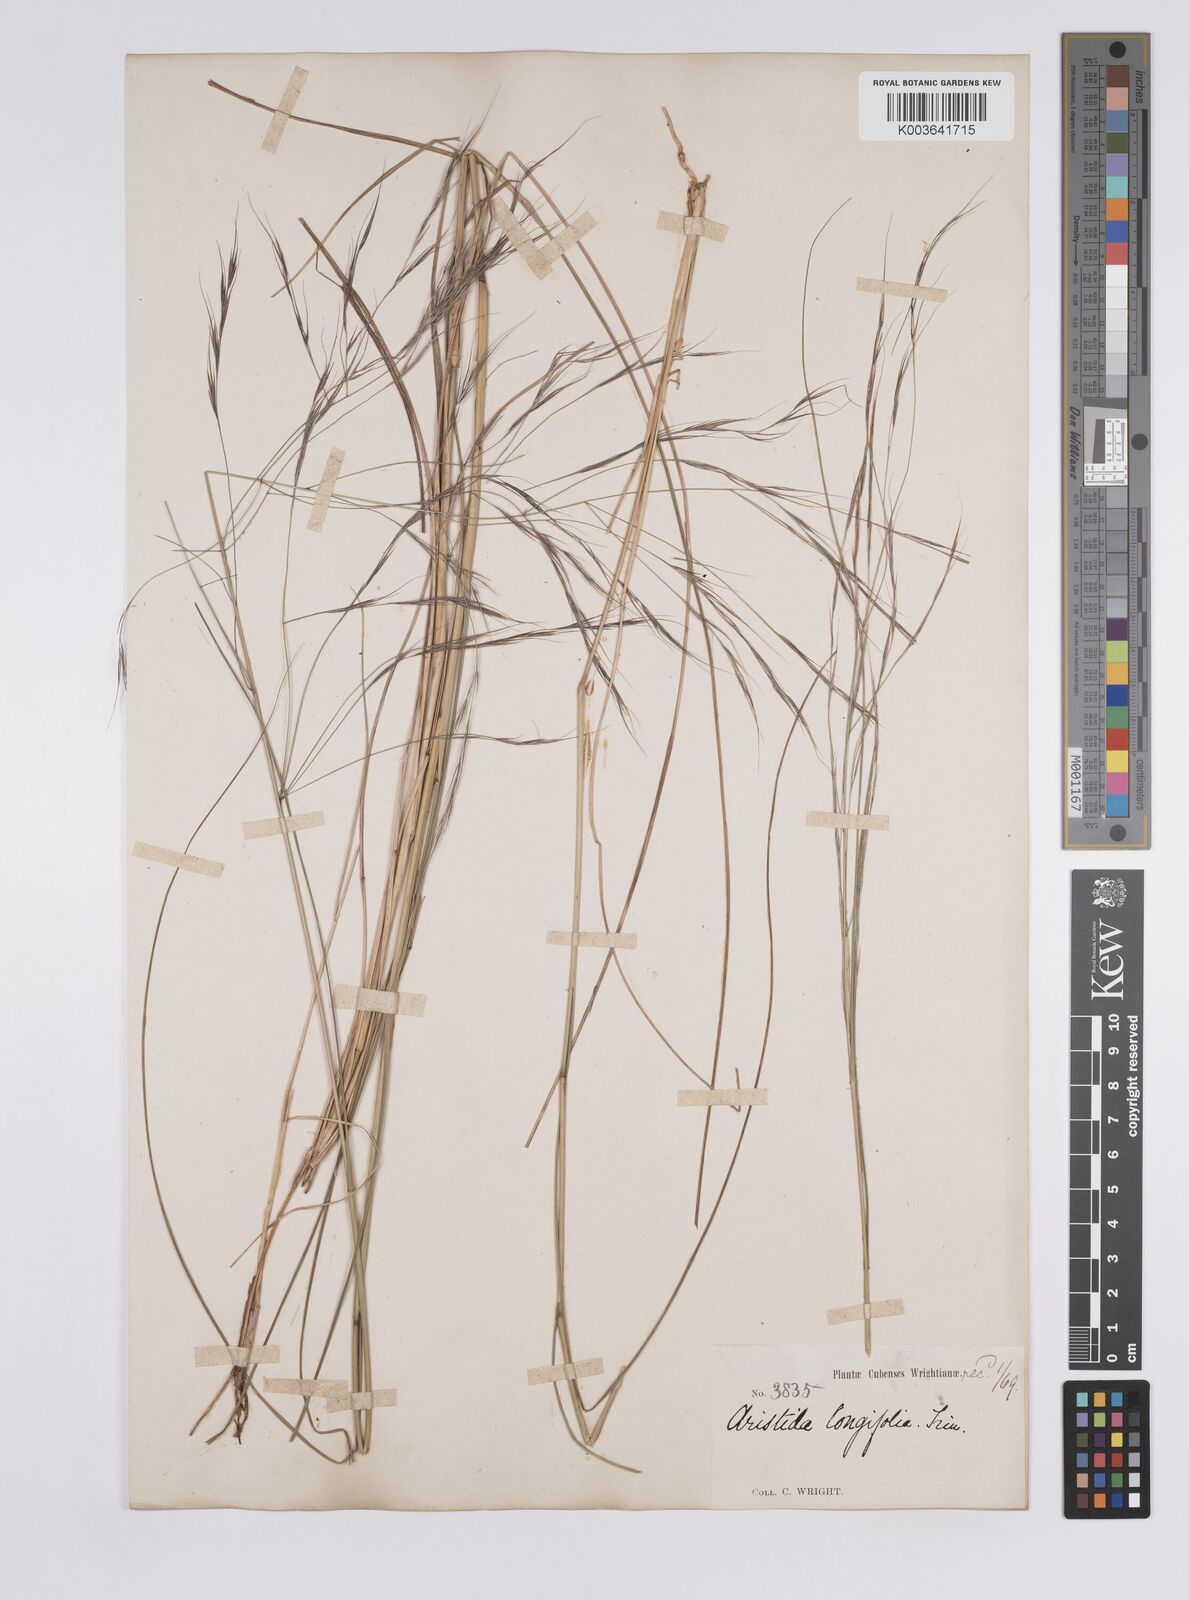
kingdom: Plantae
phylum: Tracheophyta
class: Liliopsida
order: Poales
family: Poaceae
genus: Aristida
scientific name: Aristida
